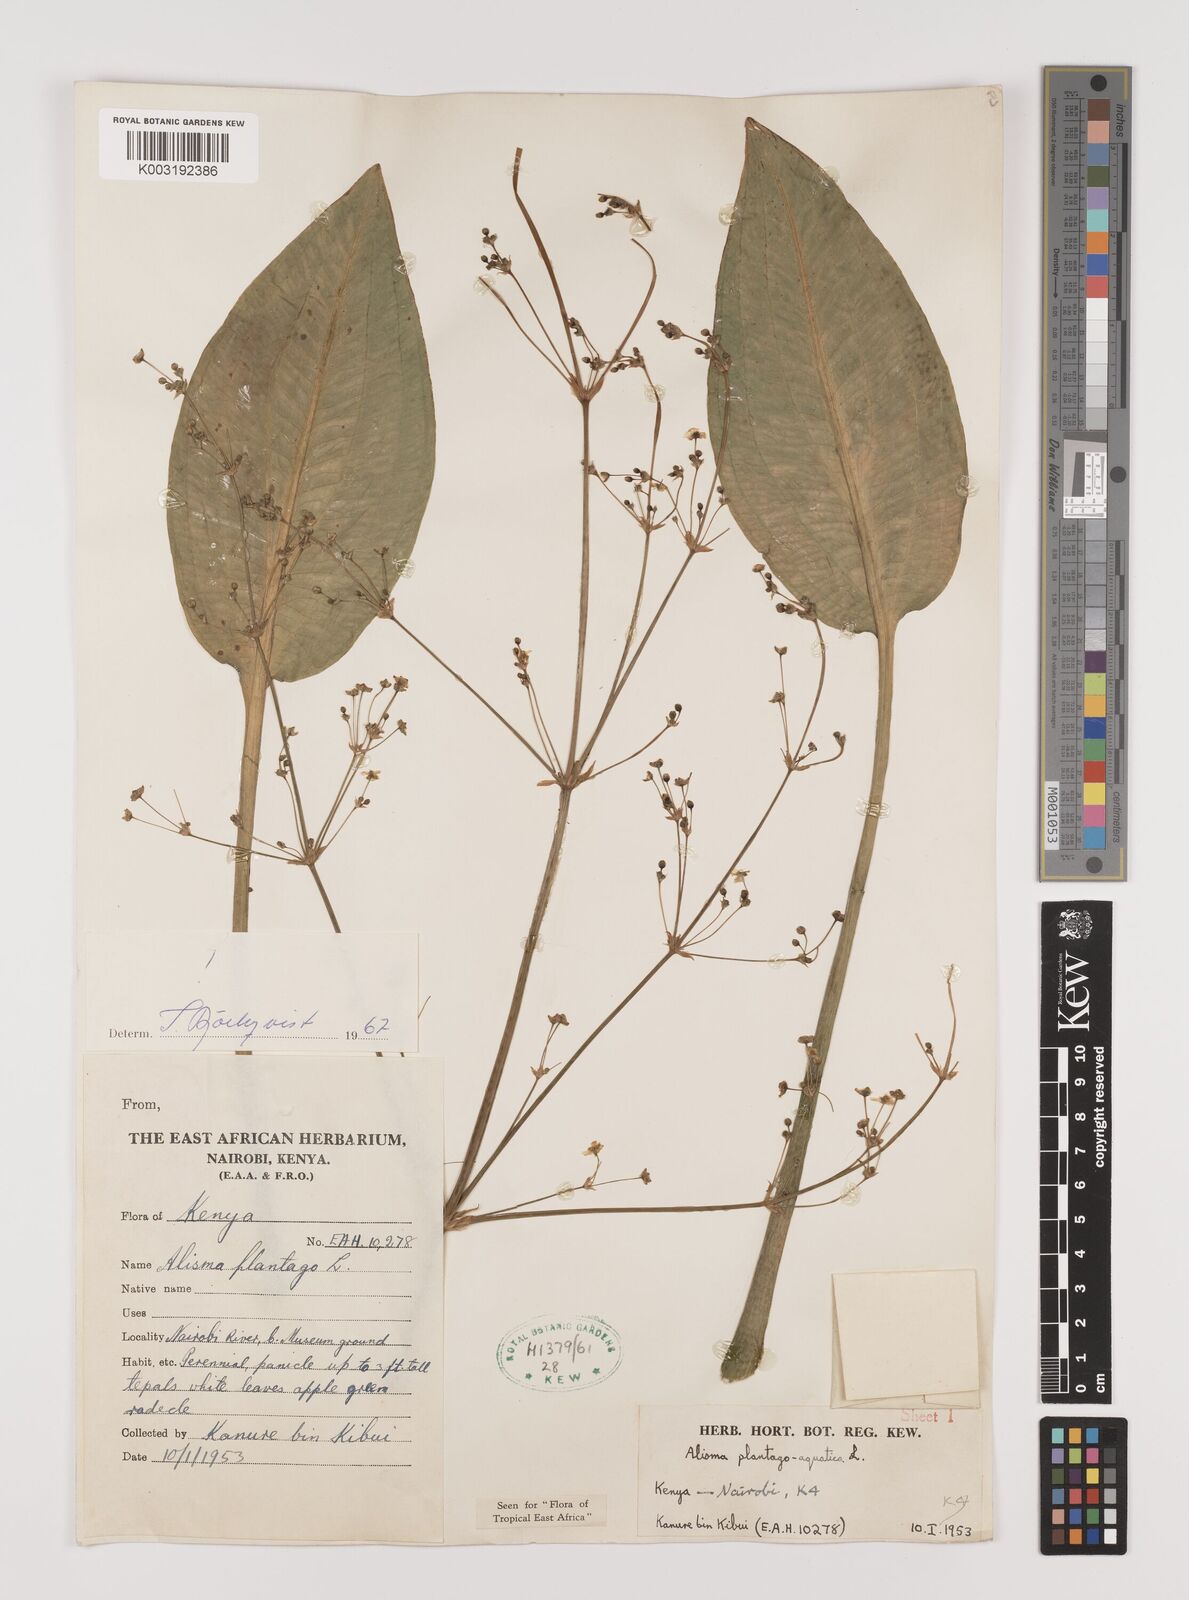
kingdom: Plantae
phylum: Tracheophyta
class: Liliopsida
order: Alismatales
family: Alismataceae
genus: Alisma
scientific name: Alisma plantago-aquatica
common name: Water-plantain
